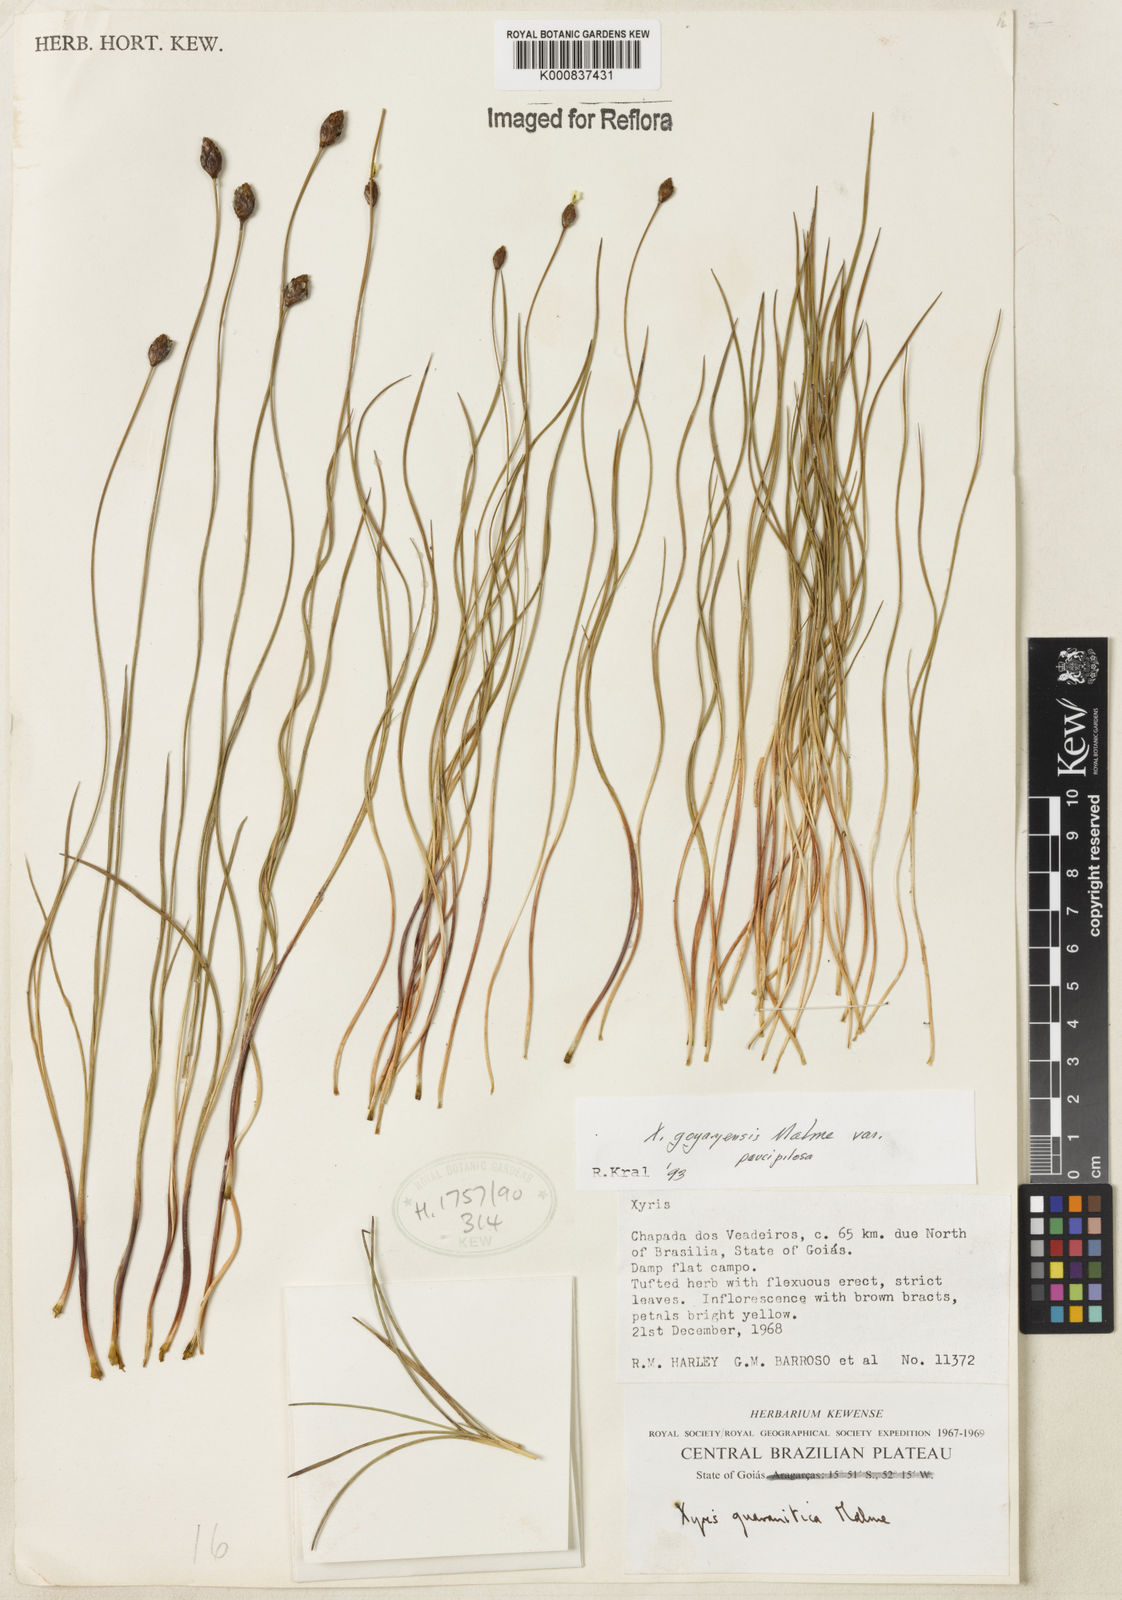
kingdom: Plantae
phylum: Tracheophyta
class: Liliopsida
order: Poales
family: Xyridaceae
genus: Xyris
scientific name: Xyris goyazensis
